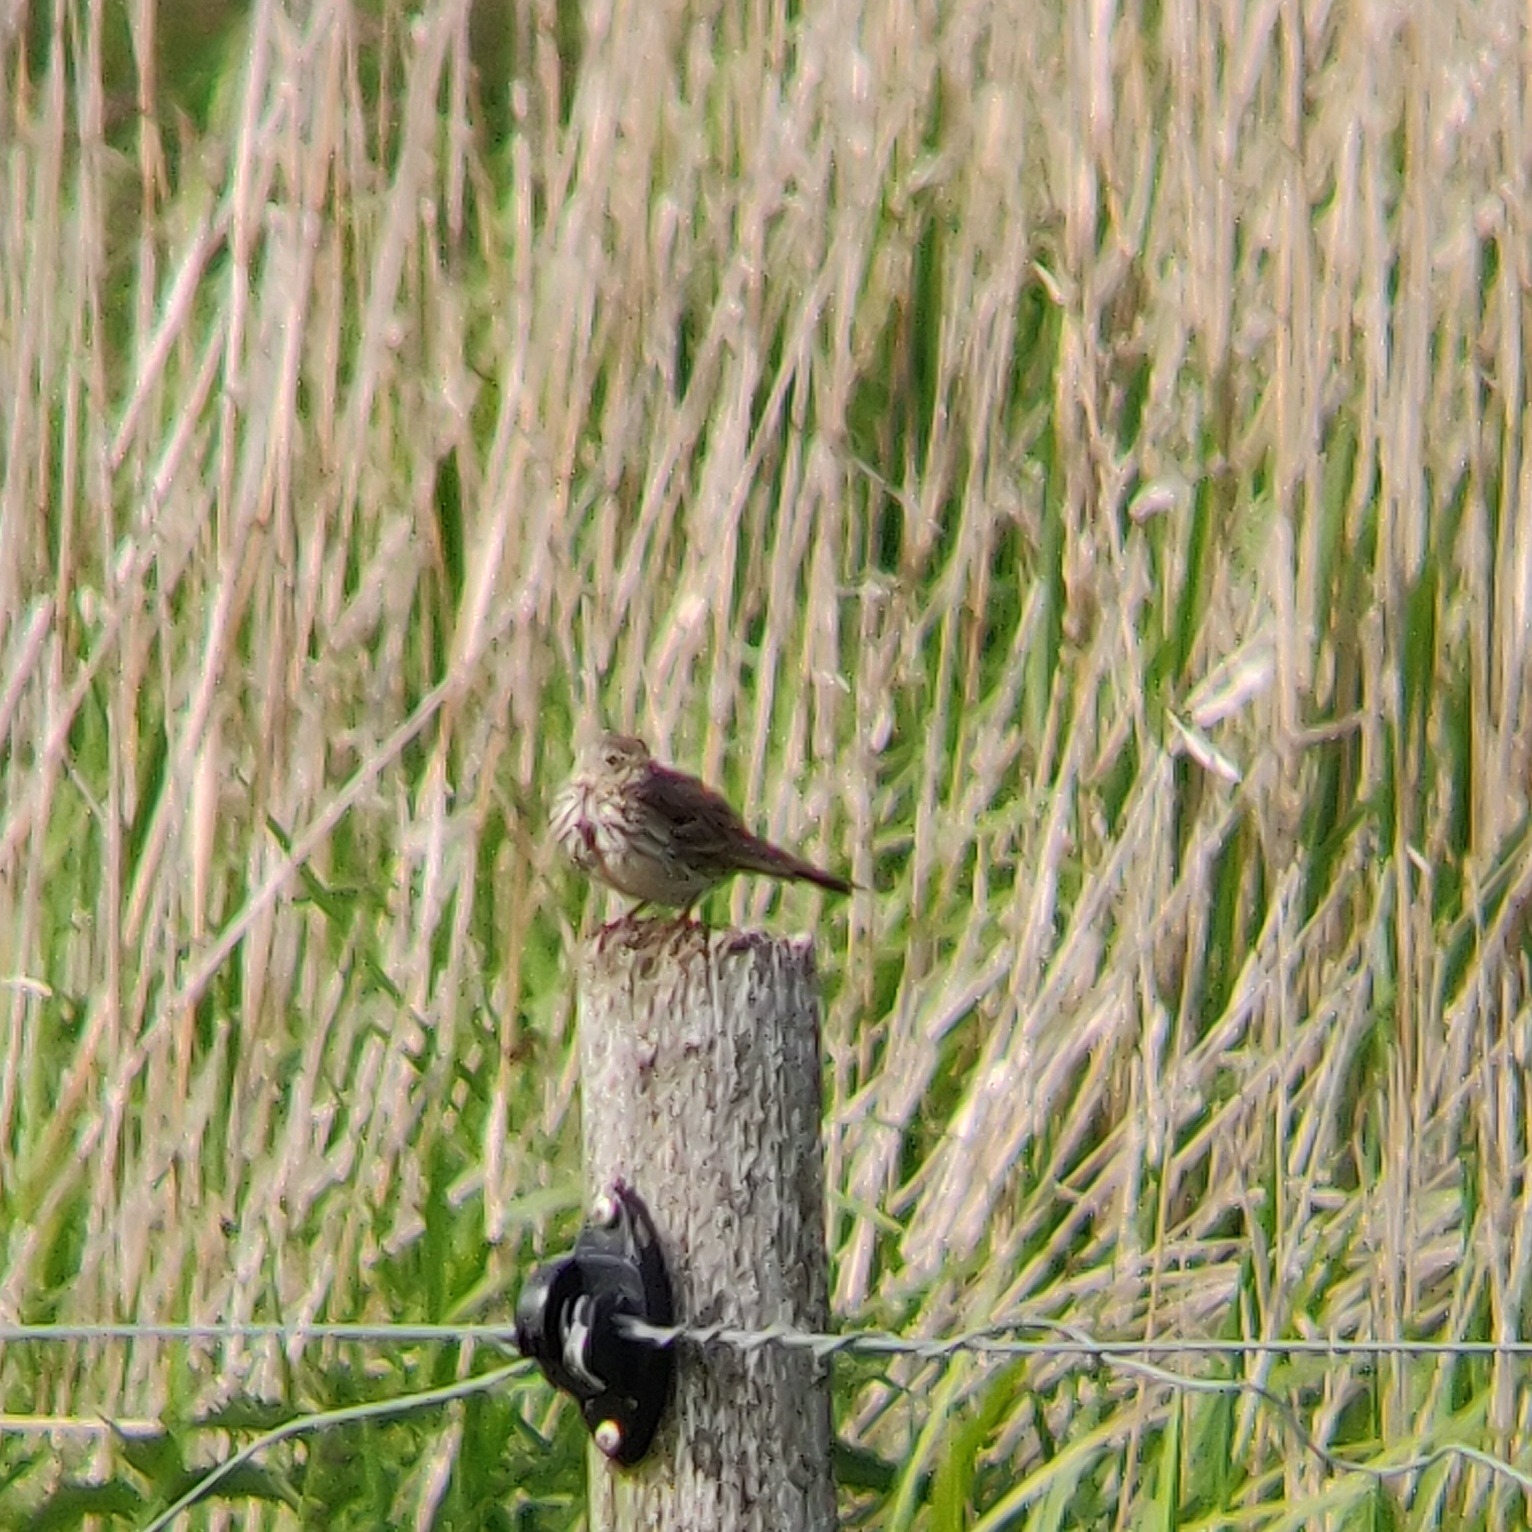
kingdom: Animalia
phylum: Chordata
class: Aves
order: Passeriformes
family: Motacillidae
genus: Anthus
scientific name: Anthus pratensis
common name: Engpiber
